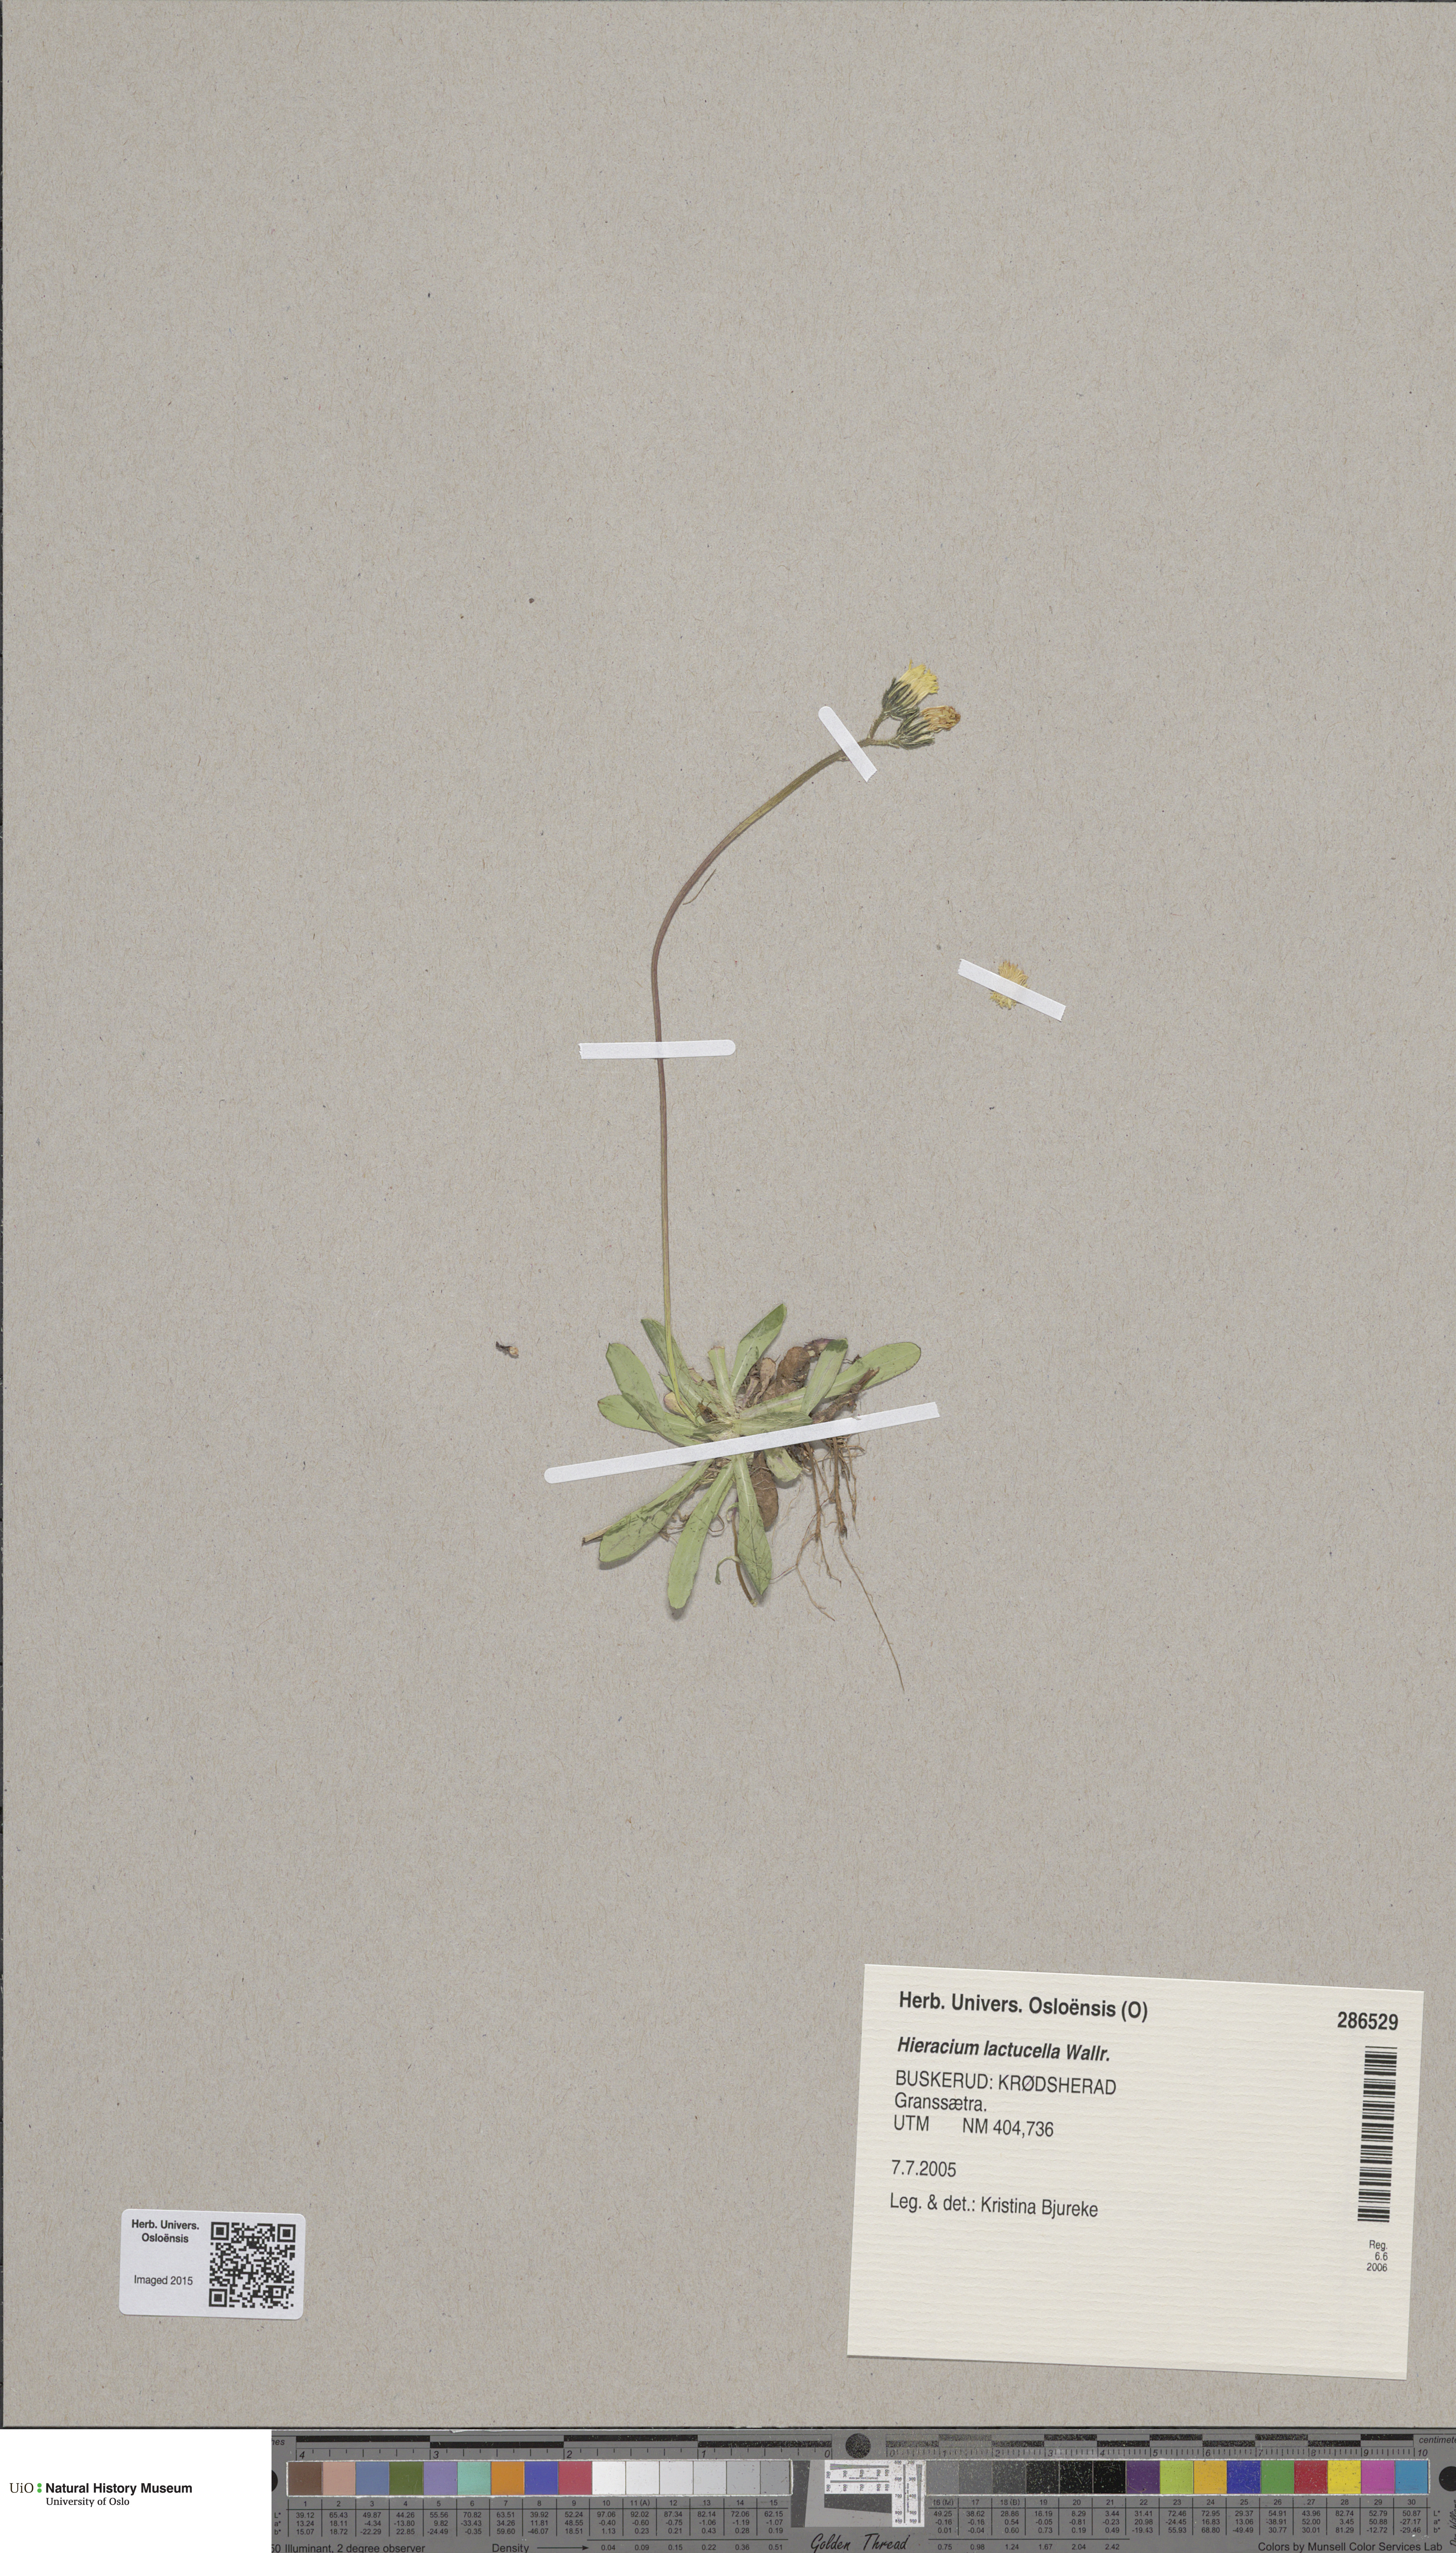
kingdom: Plantae
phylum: Tracheophyta
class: Magnoliopsida
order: Asterales
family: Asteraceae
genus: Pilosella
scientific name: Pilosella lactucella
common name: Glaucous fox-and-cubs
